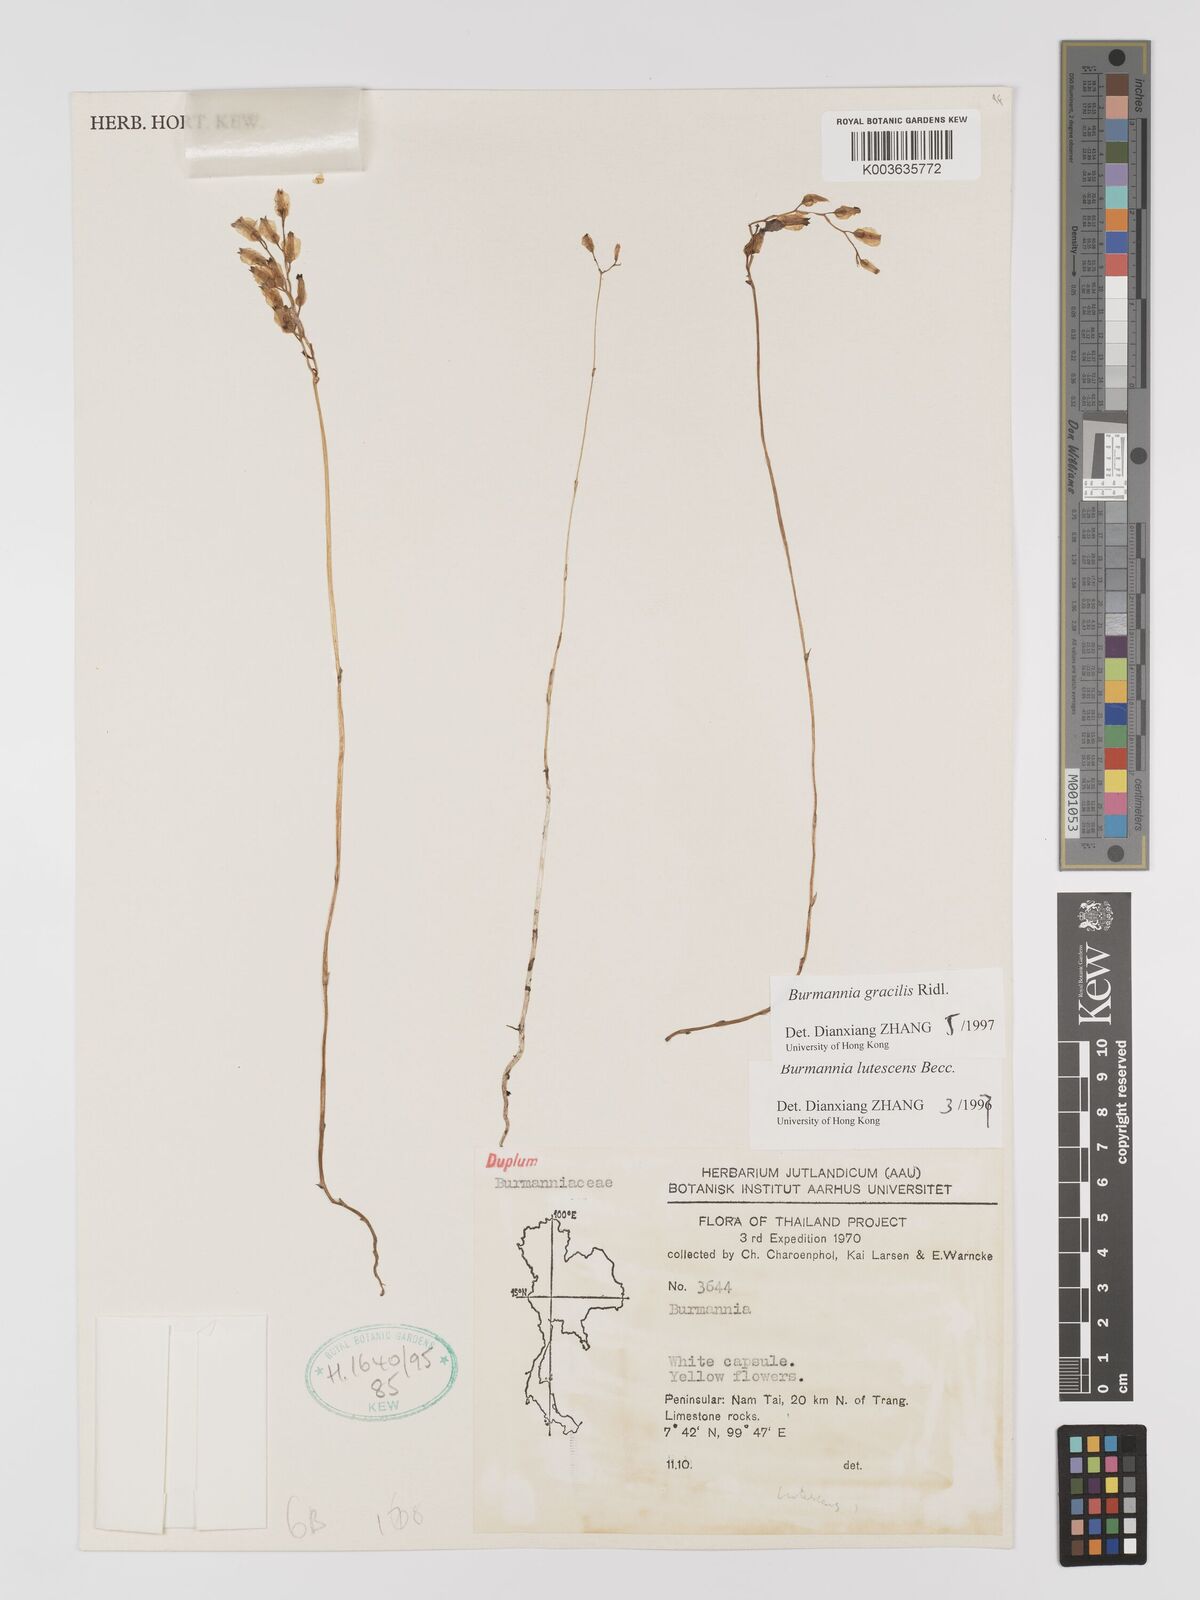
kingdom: Plantae
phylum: Tracheophyta
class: Liliopsida
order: Dioscoreales
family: Burmanniaceae
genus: Burmannia
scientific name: Burmannia gracilis
